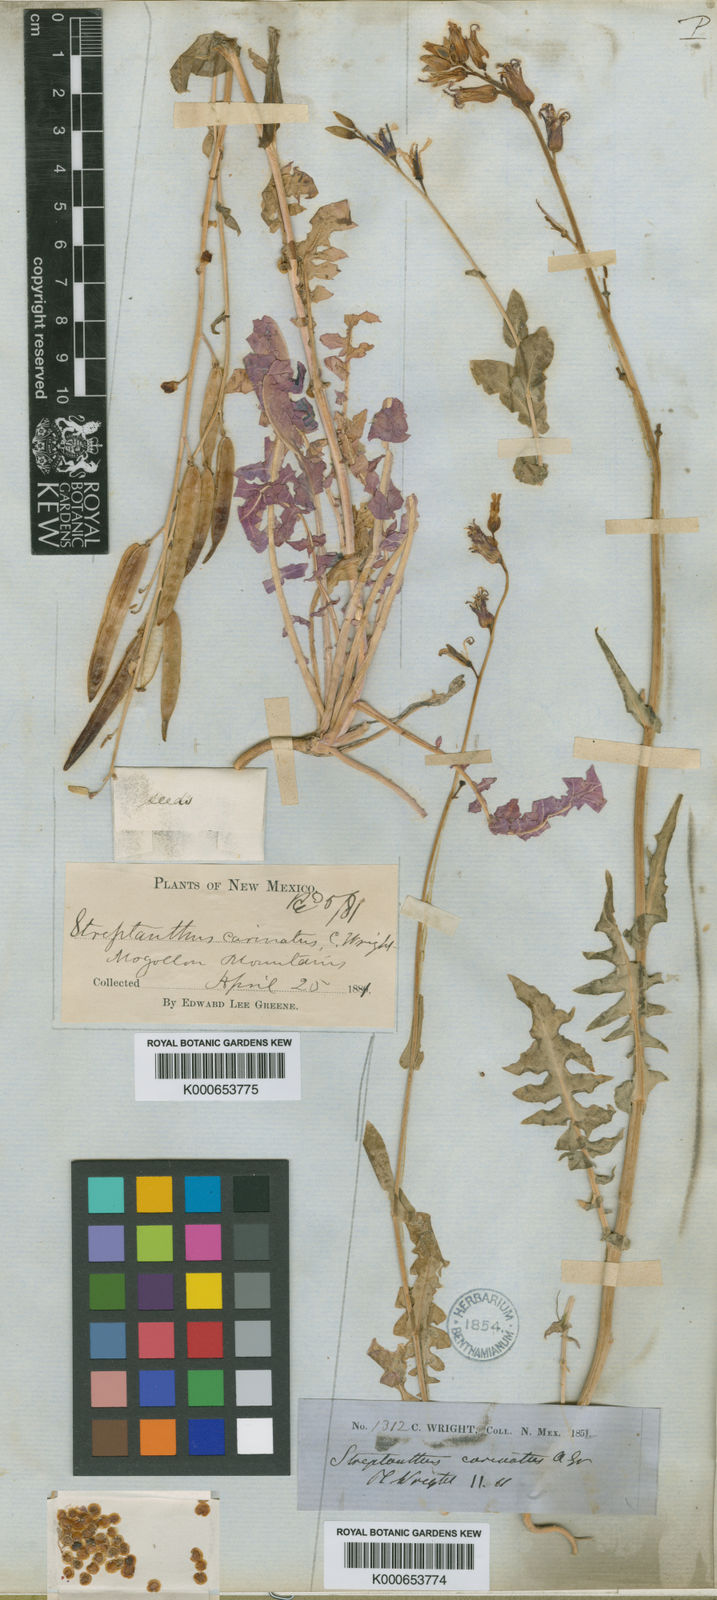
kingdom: Plantae
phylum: Tracheophyta
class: Magnoliopsida
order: Brassicales
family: Brassicaceae
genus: Streptanthus
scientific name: Streptanthus carinatus
